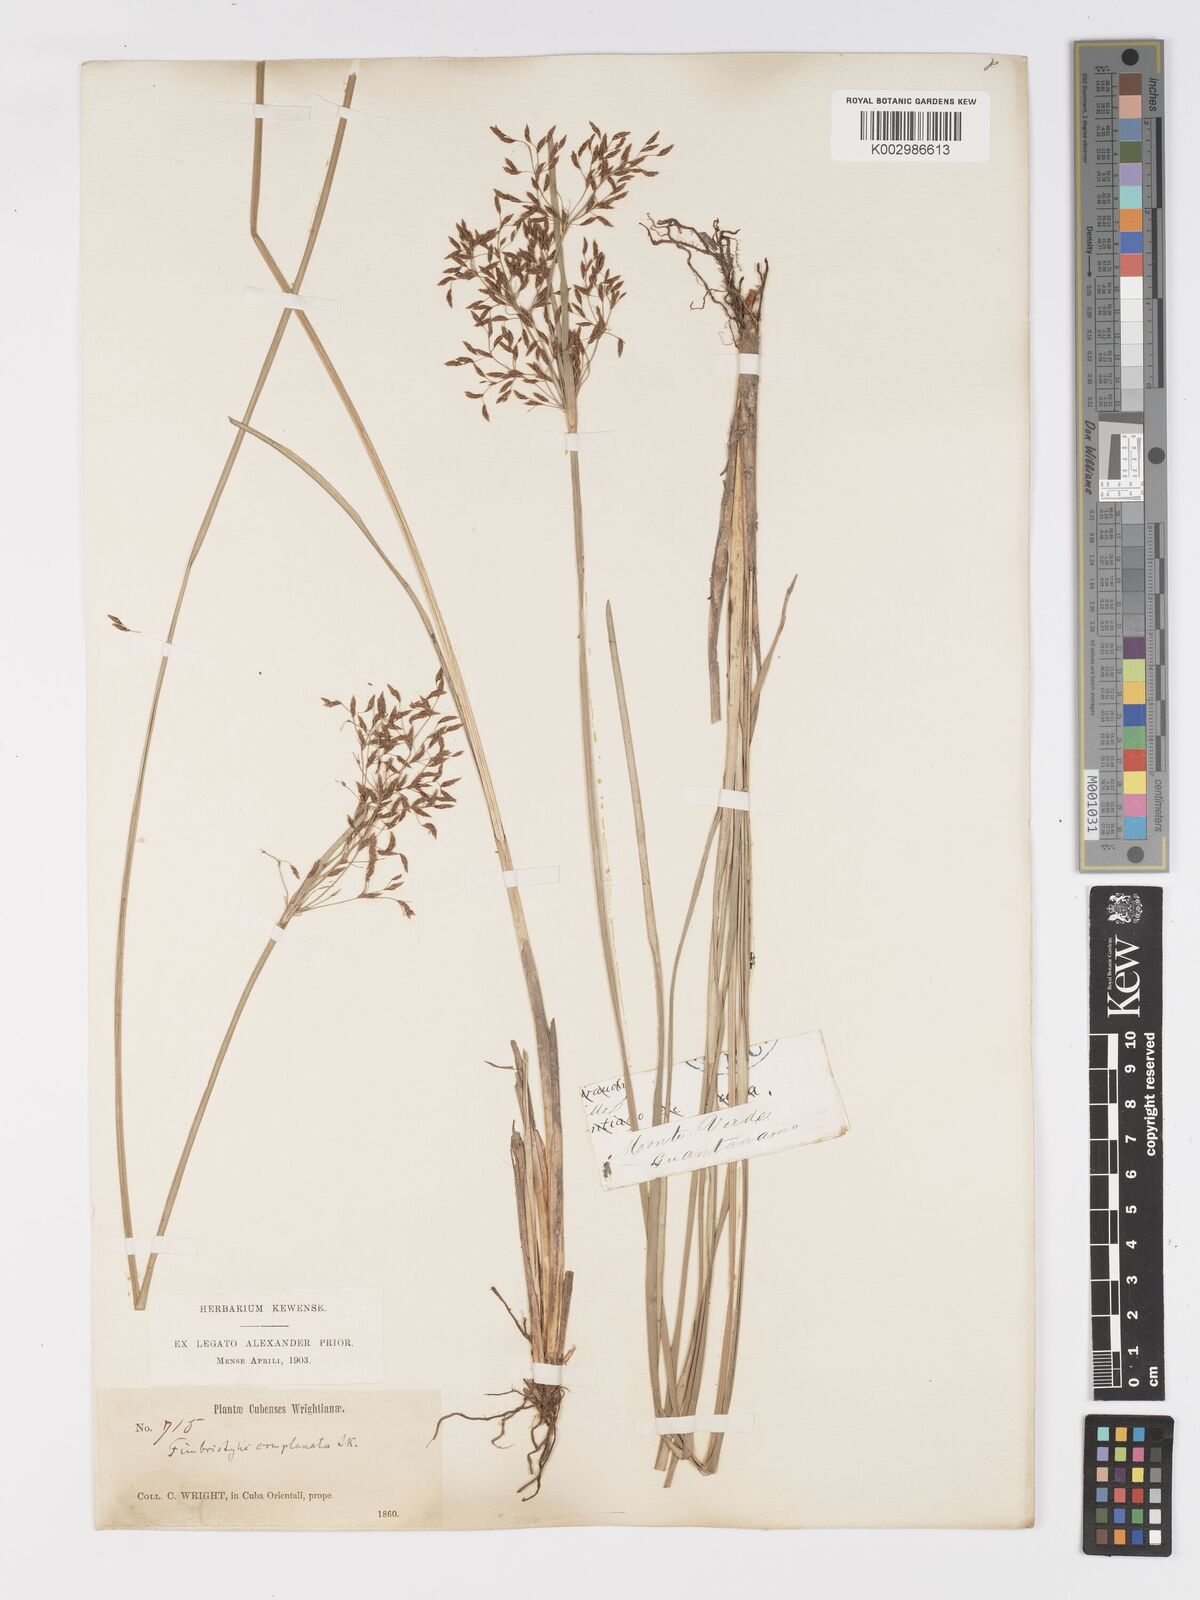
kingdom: Plantae
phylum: Tracheophyta
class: Liliopsida
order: Poales
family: Cyperaceae
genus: Fimbristylis
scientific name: Fimbristylis complanata
